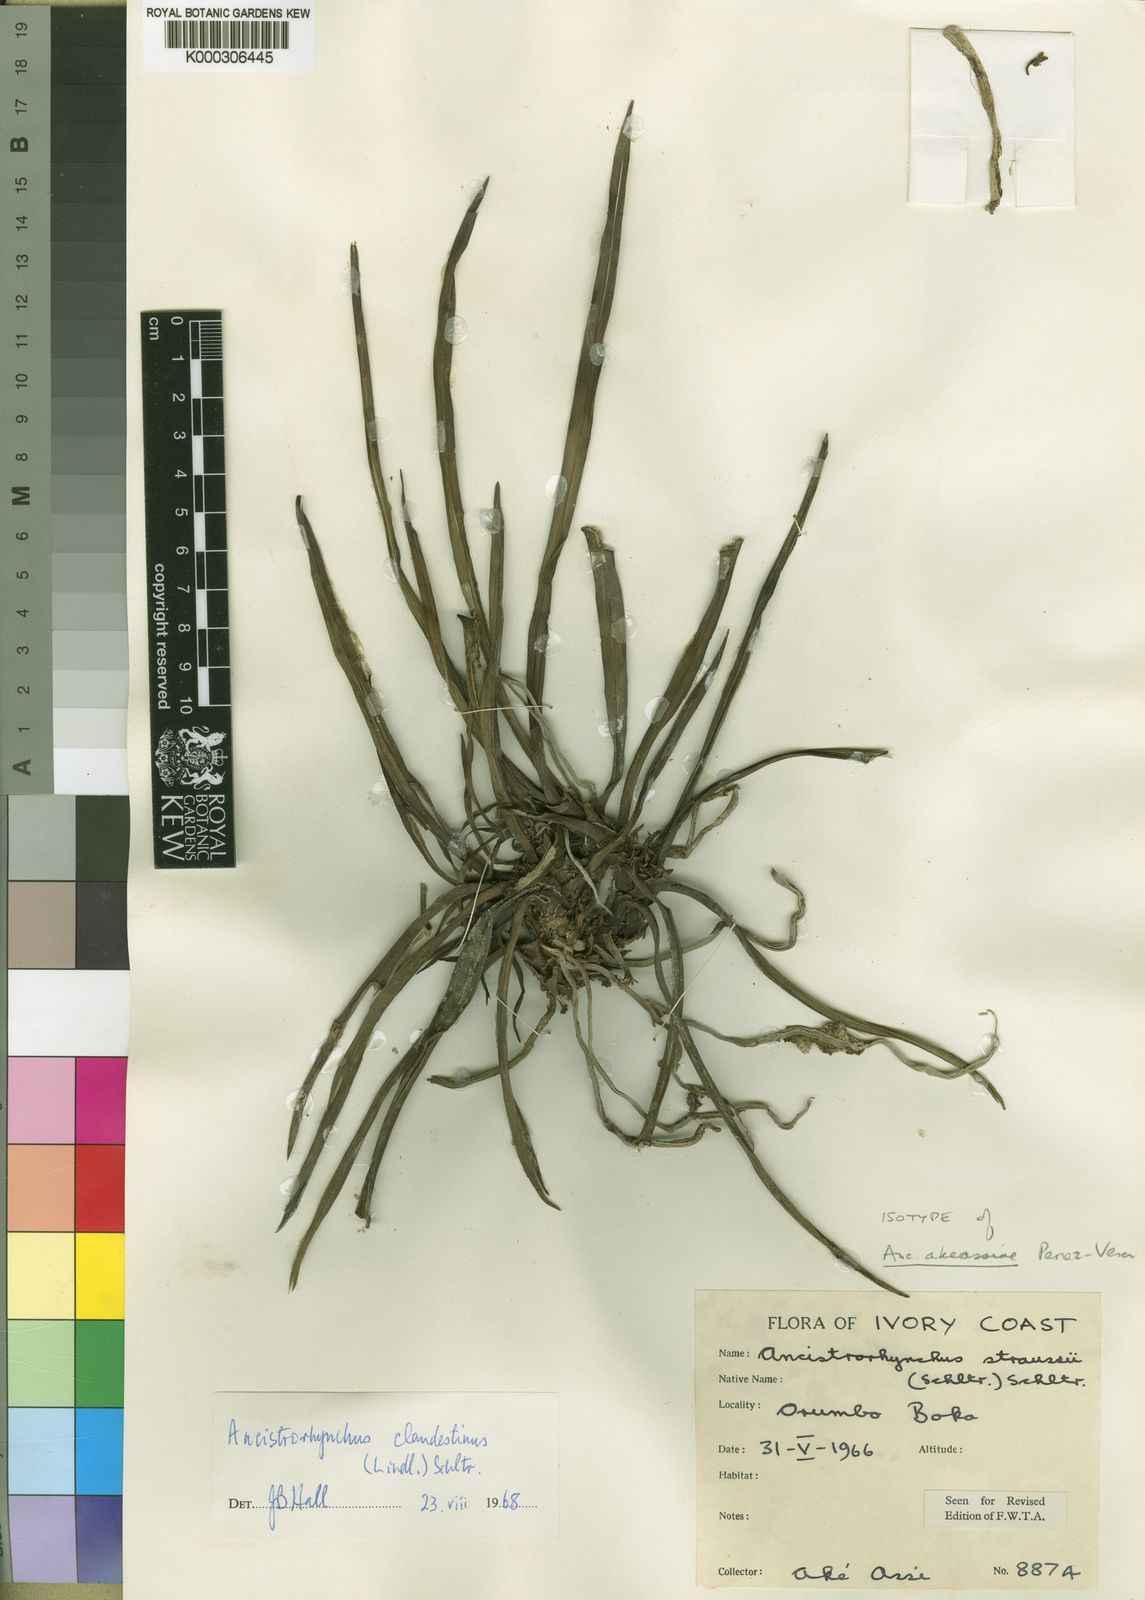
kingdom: Plantae
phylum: Tracheophyta
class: Liliopsida
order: Asparagales
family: Orchidaceae
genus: Ancistrorhynchus
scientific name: Ancistrorhynchus
